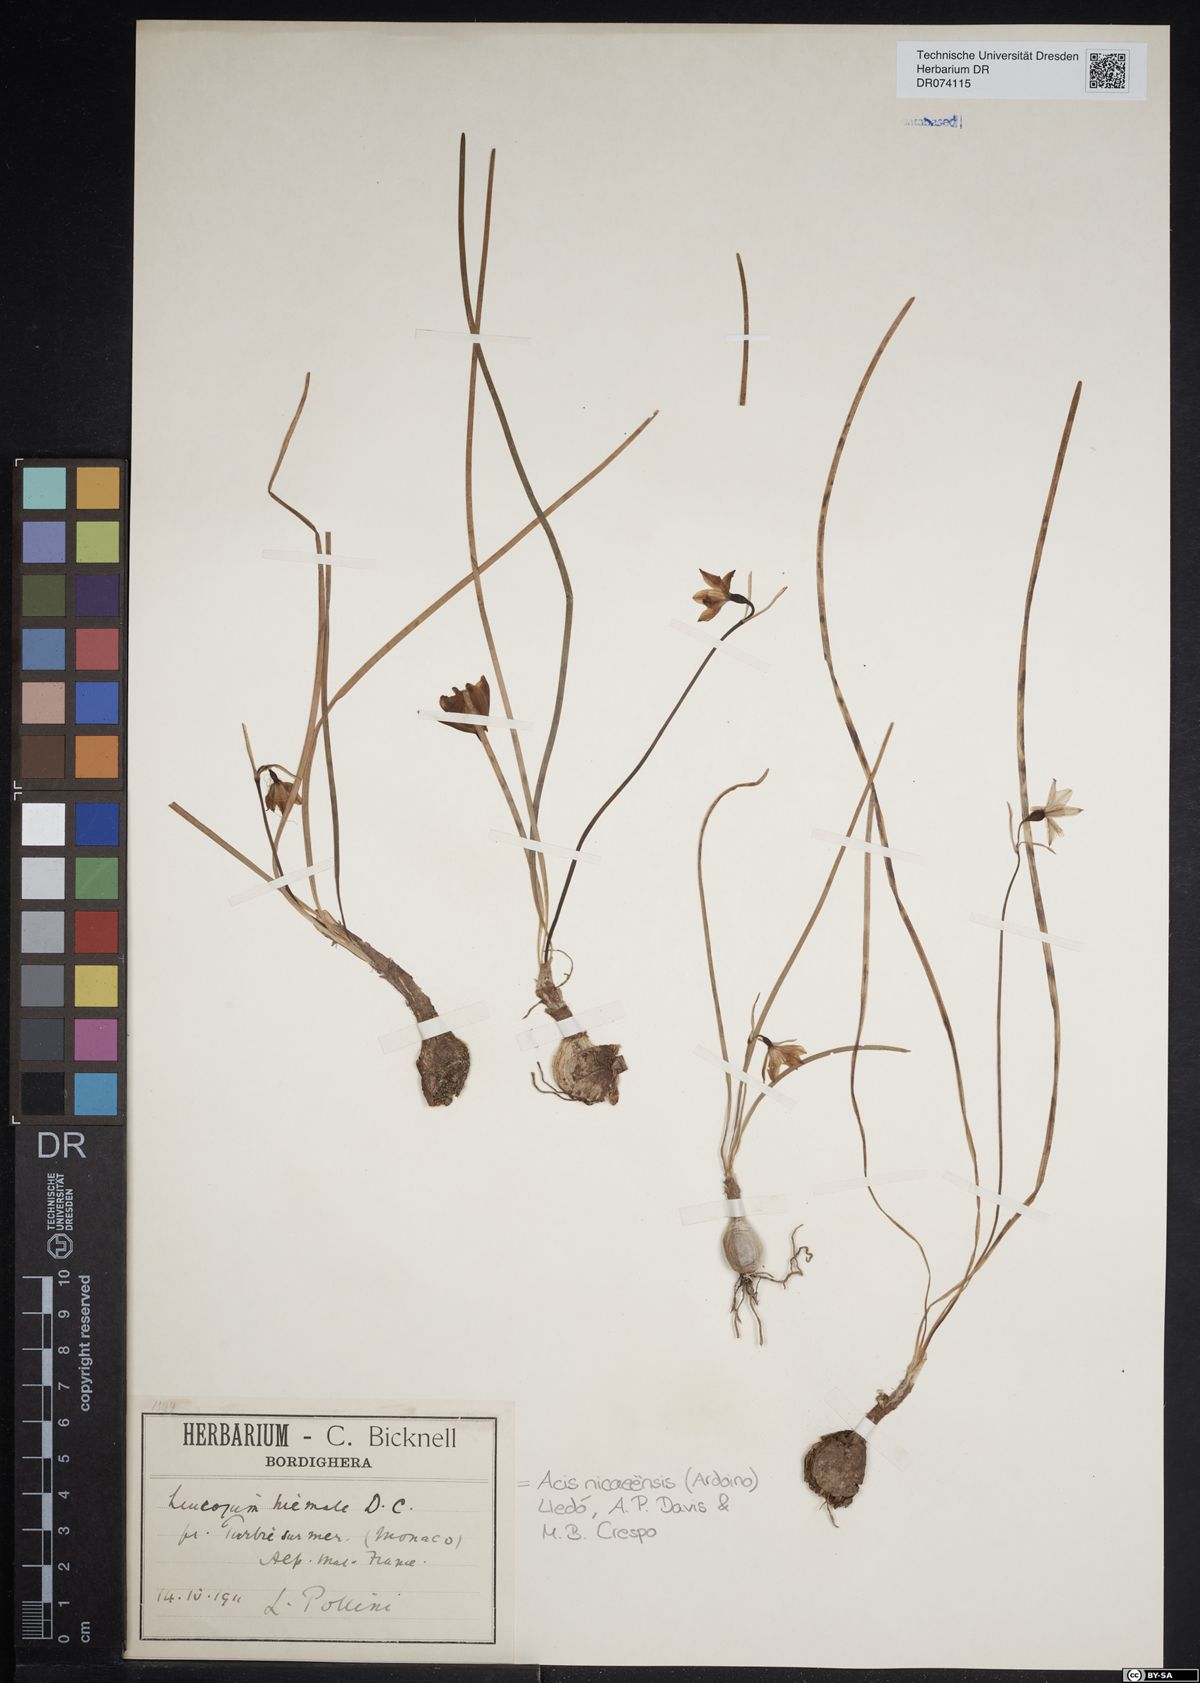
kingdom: Plantae
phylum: Tracheophyta
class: Liliopsida
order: Asparagales
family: Amaryllidaceae
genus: Acis
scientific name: Acis nicaeensis
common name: French snowflake
